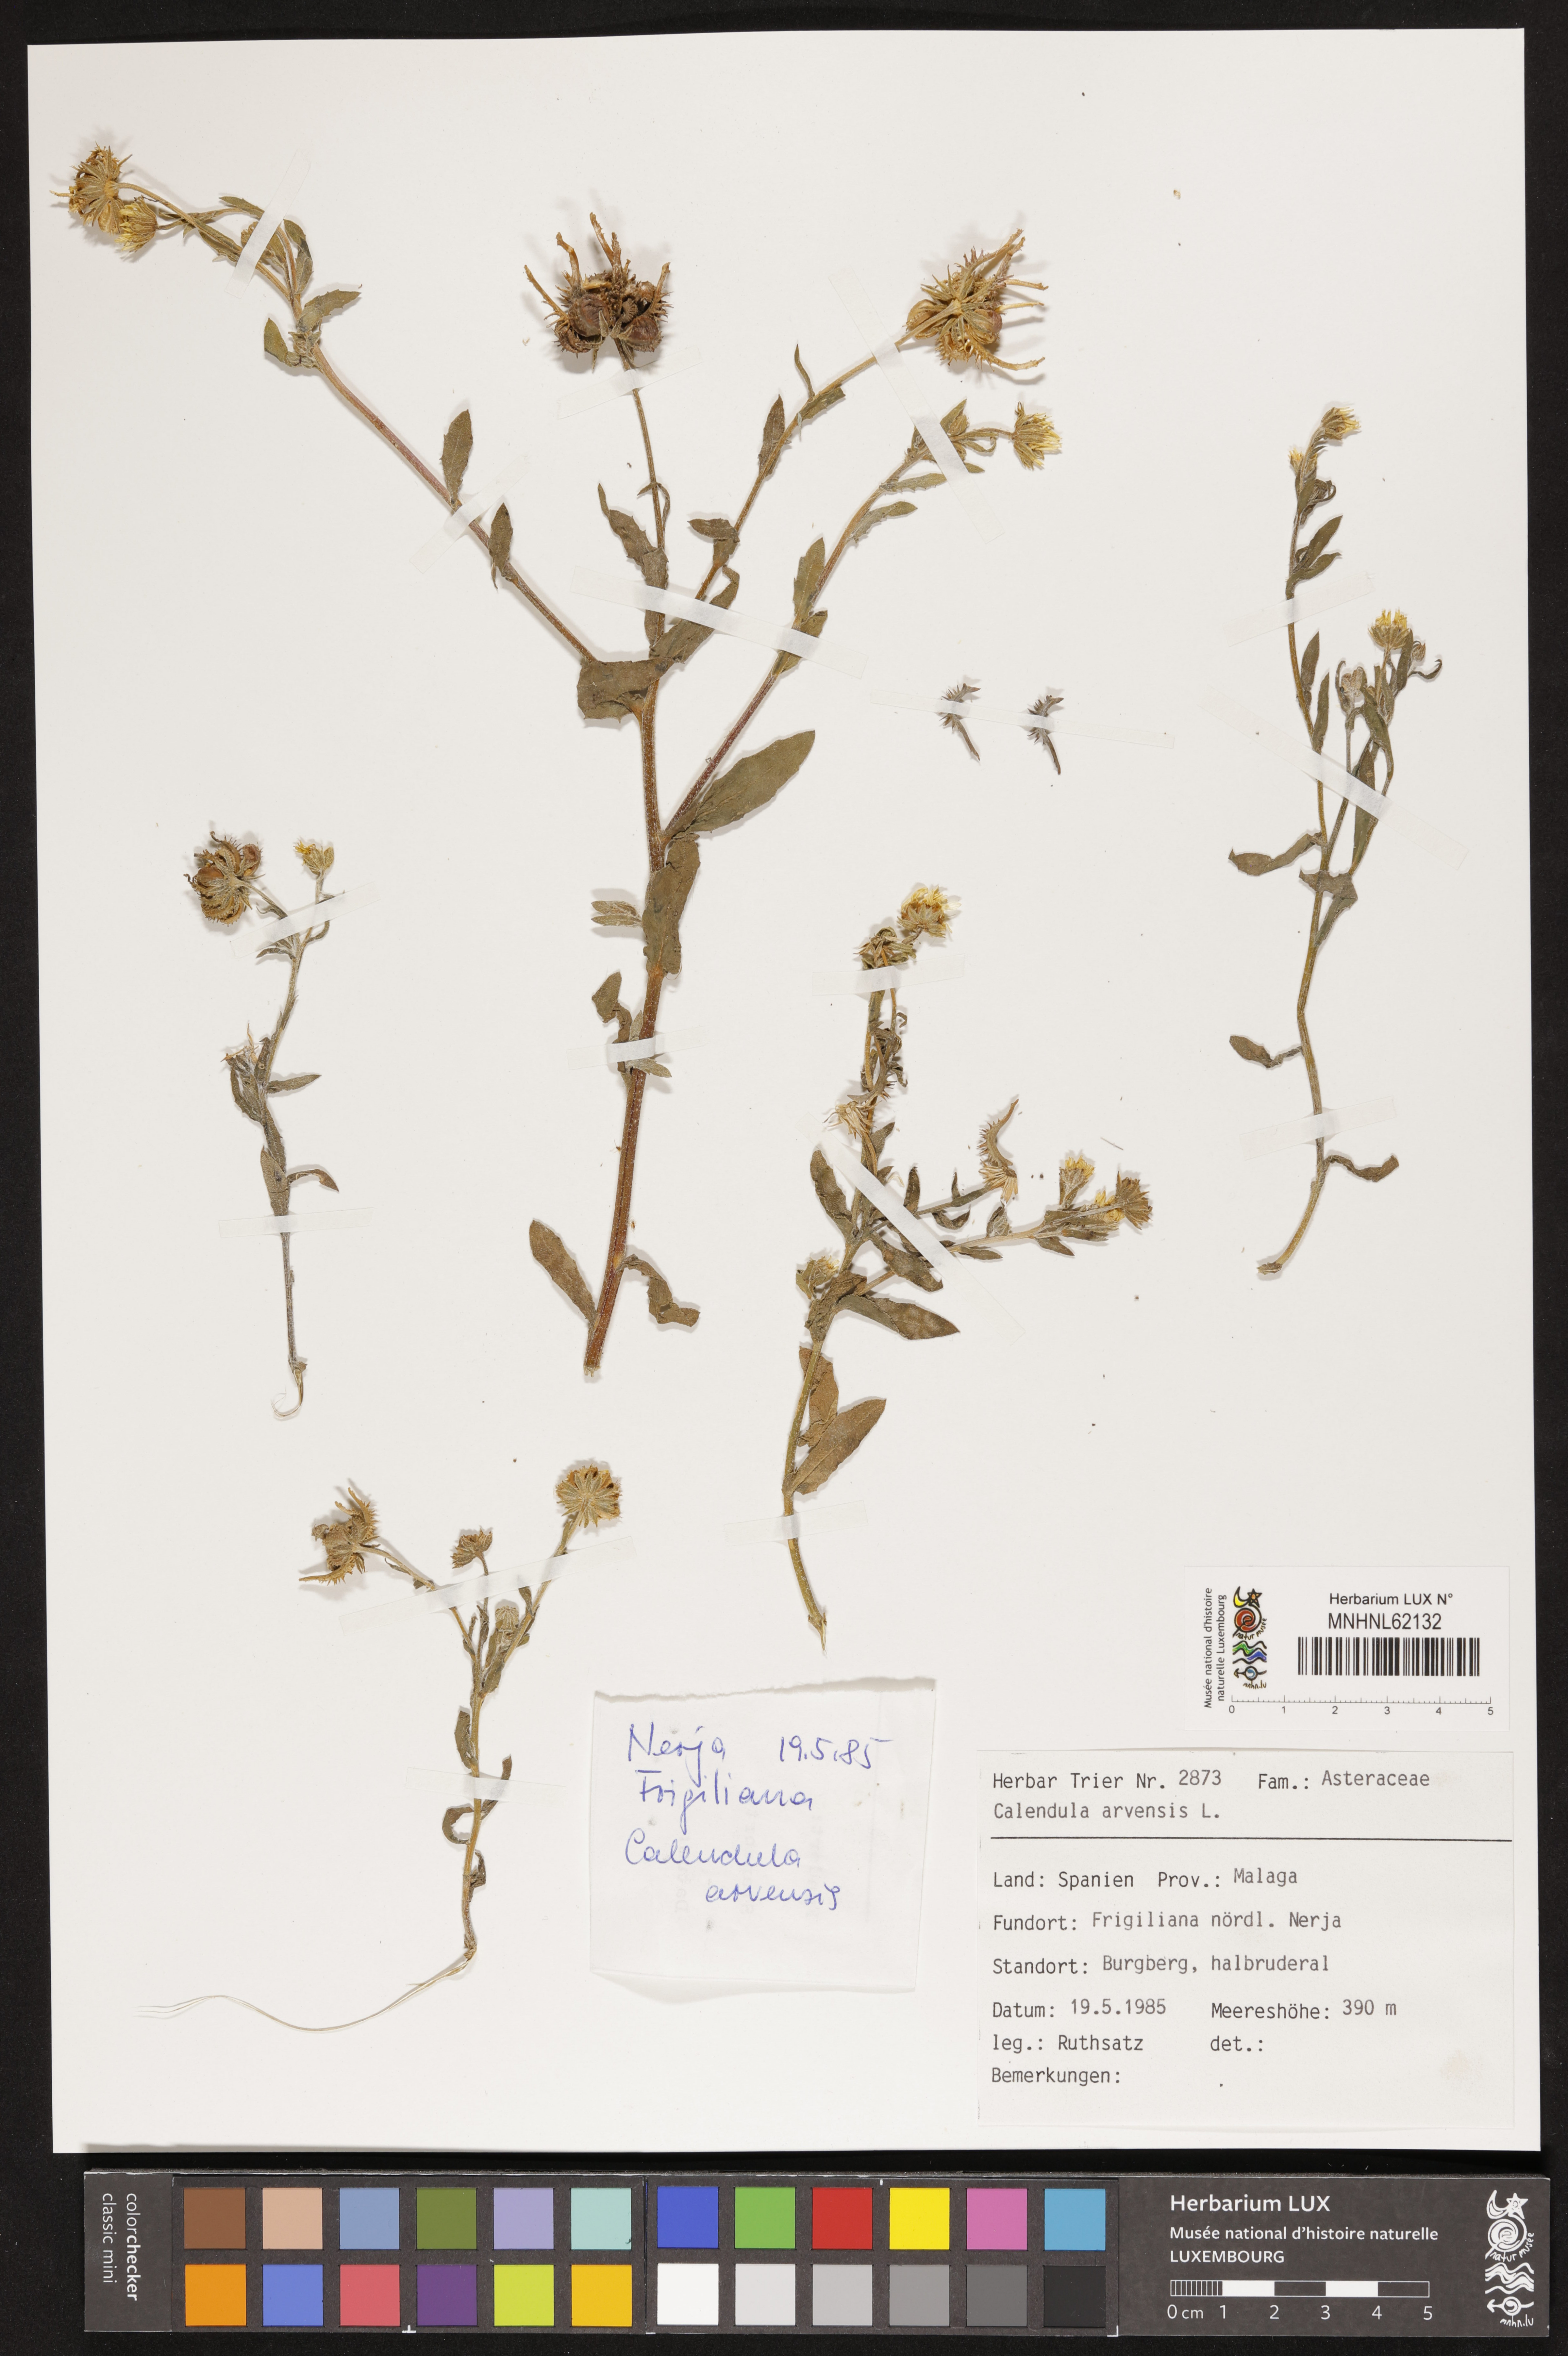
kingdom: Plantae
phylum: Tracheophyta
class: Magnoliopsida
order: Asterales
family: Asteraceae
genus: Calendula
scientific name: Calendula arvensis
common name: Field marigold
